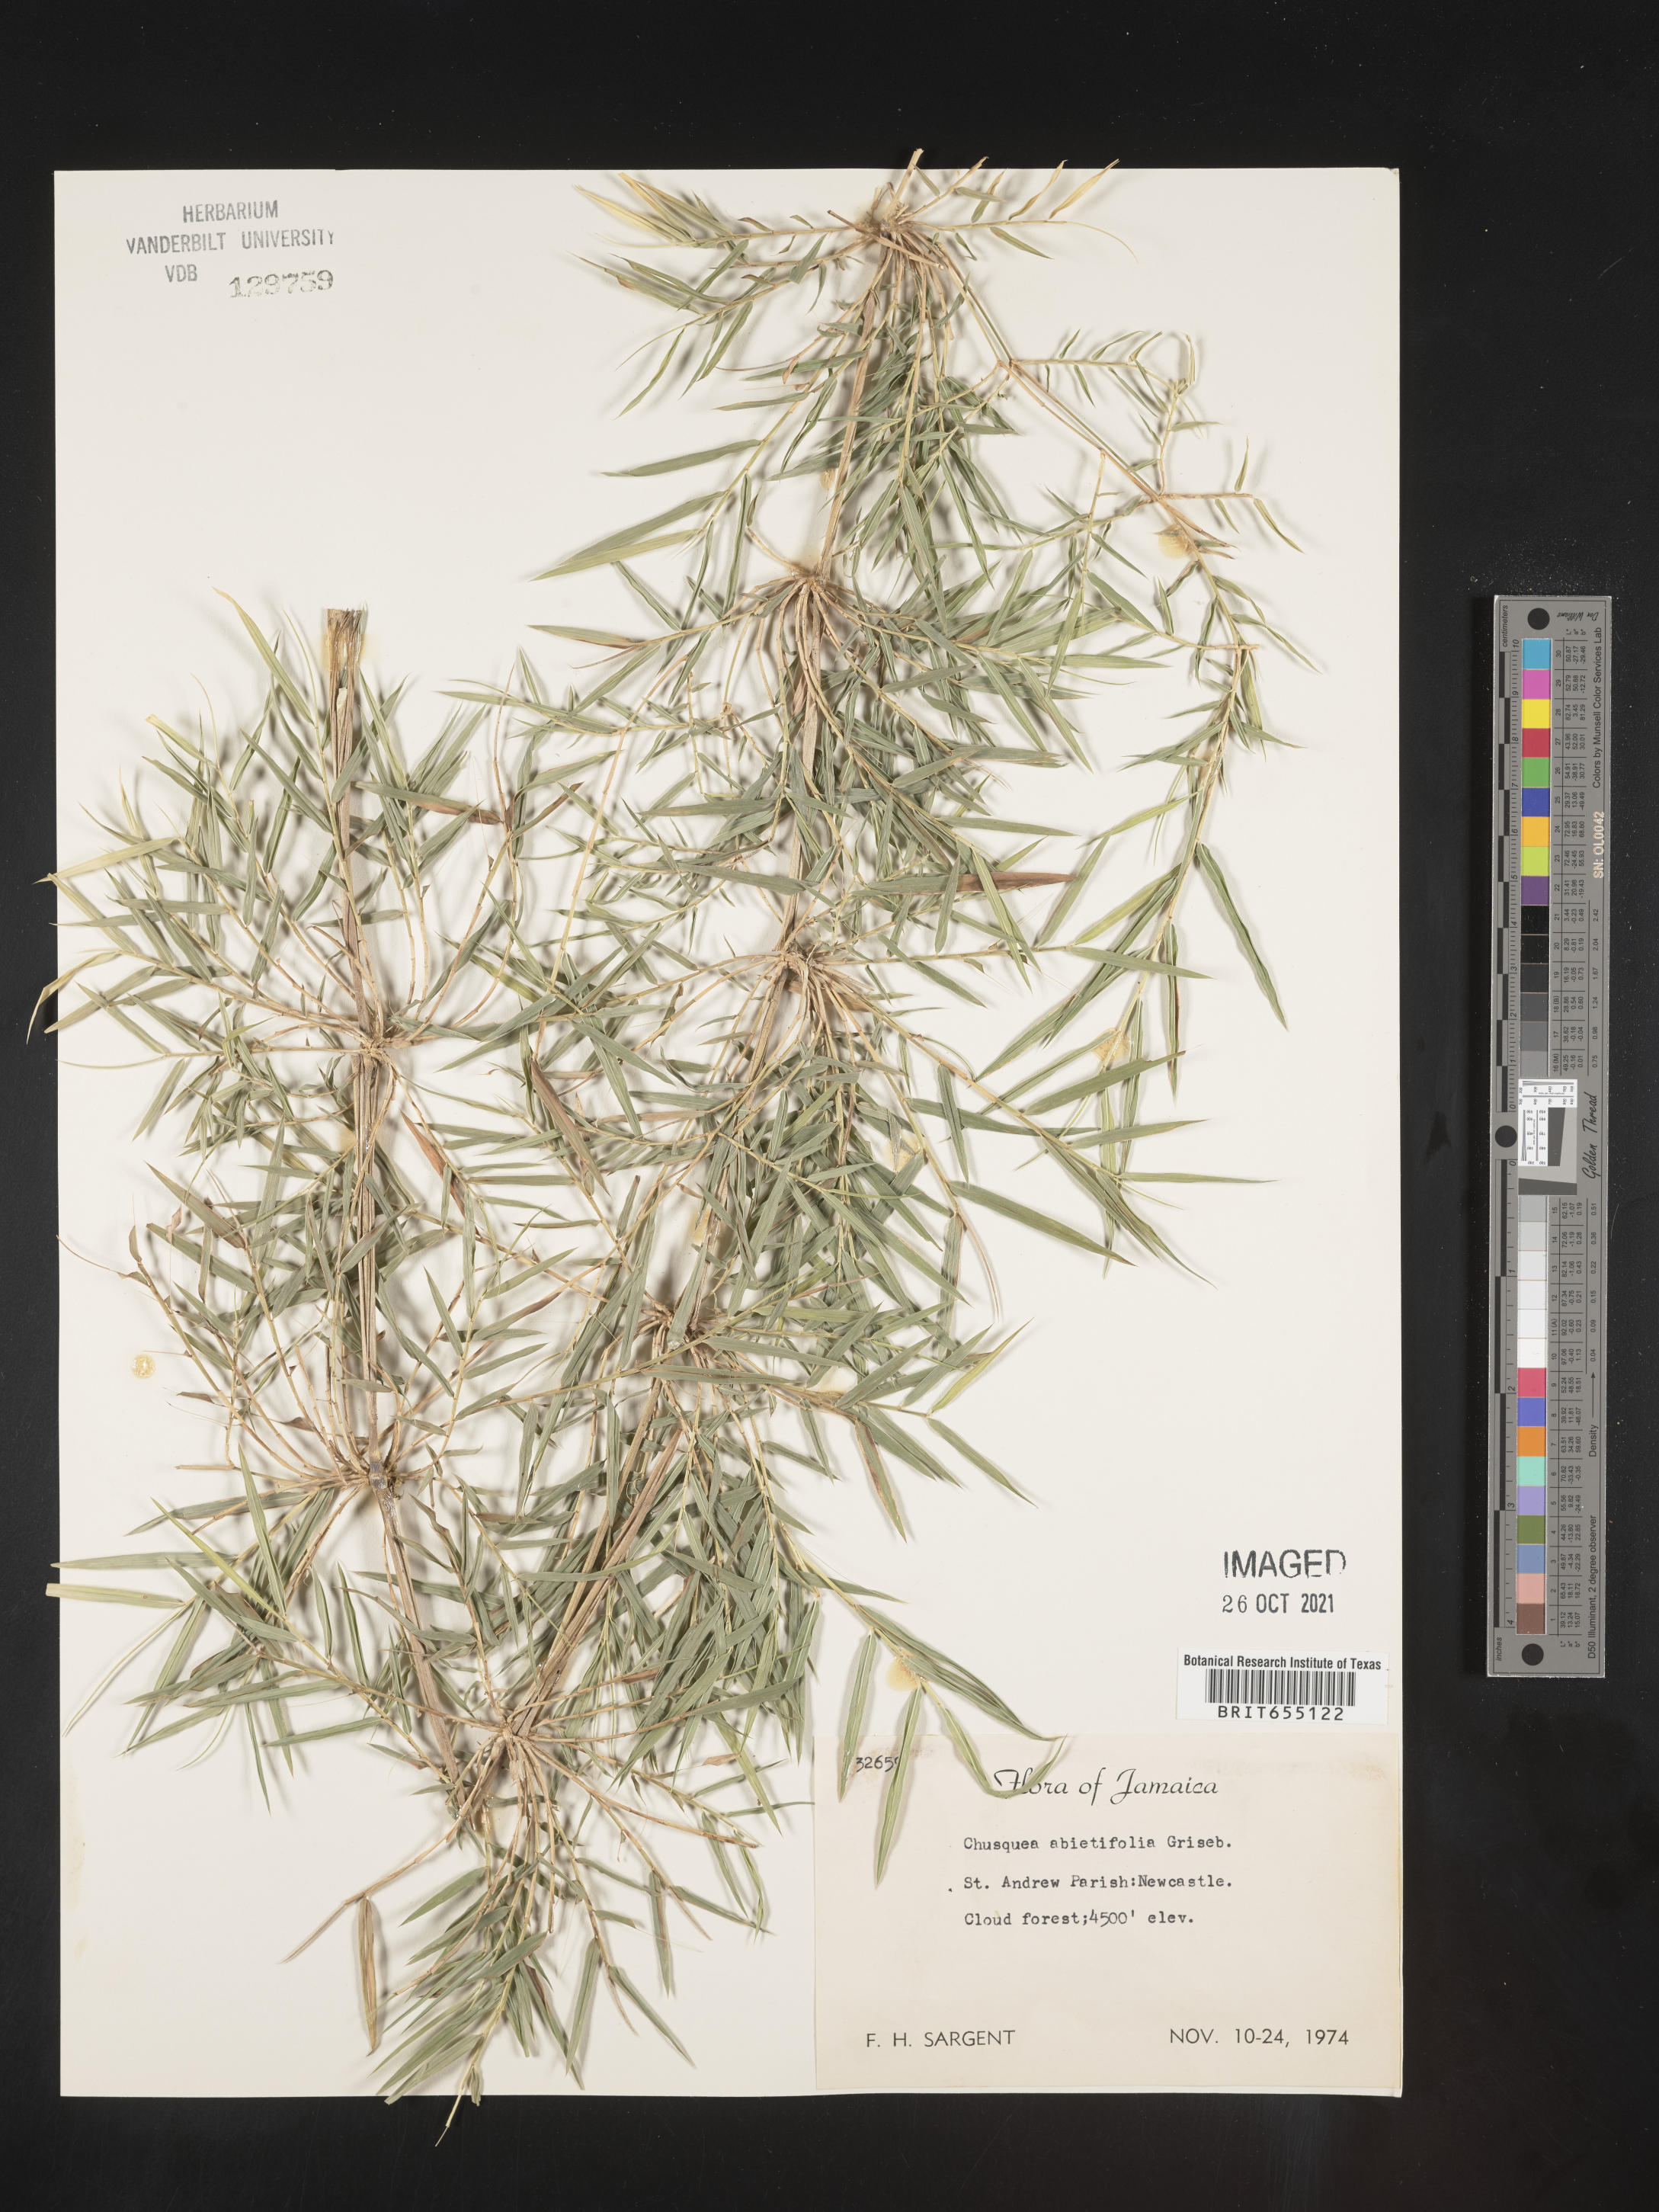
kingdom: Plantae
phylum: Tracheophyta
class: Liliopsida
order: Poales
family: Poaceae
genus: Chusquea
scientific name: Chusquea
